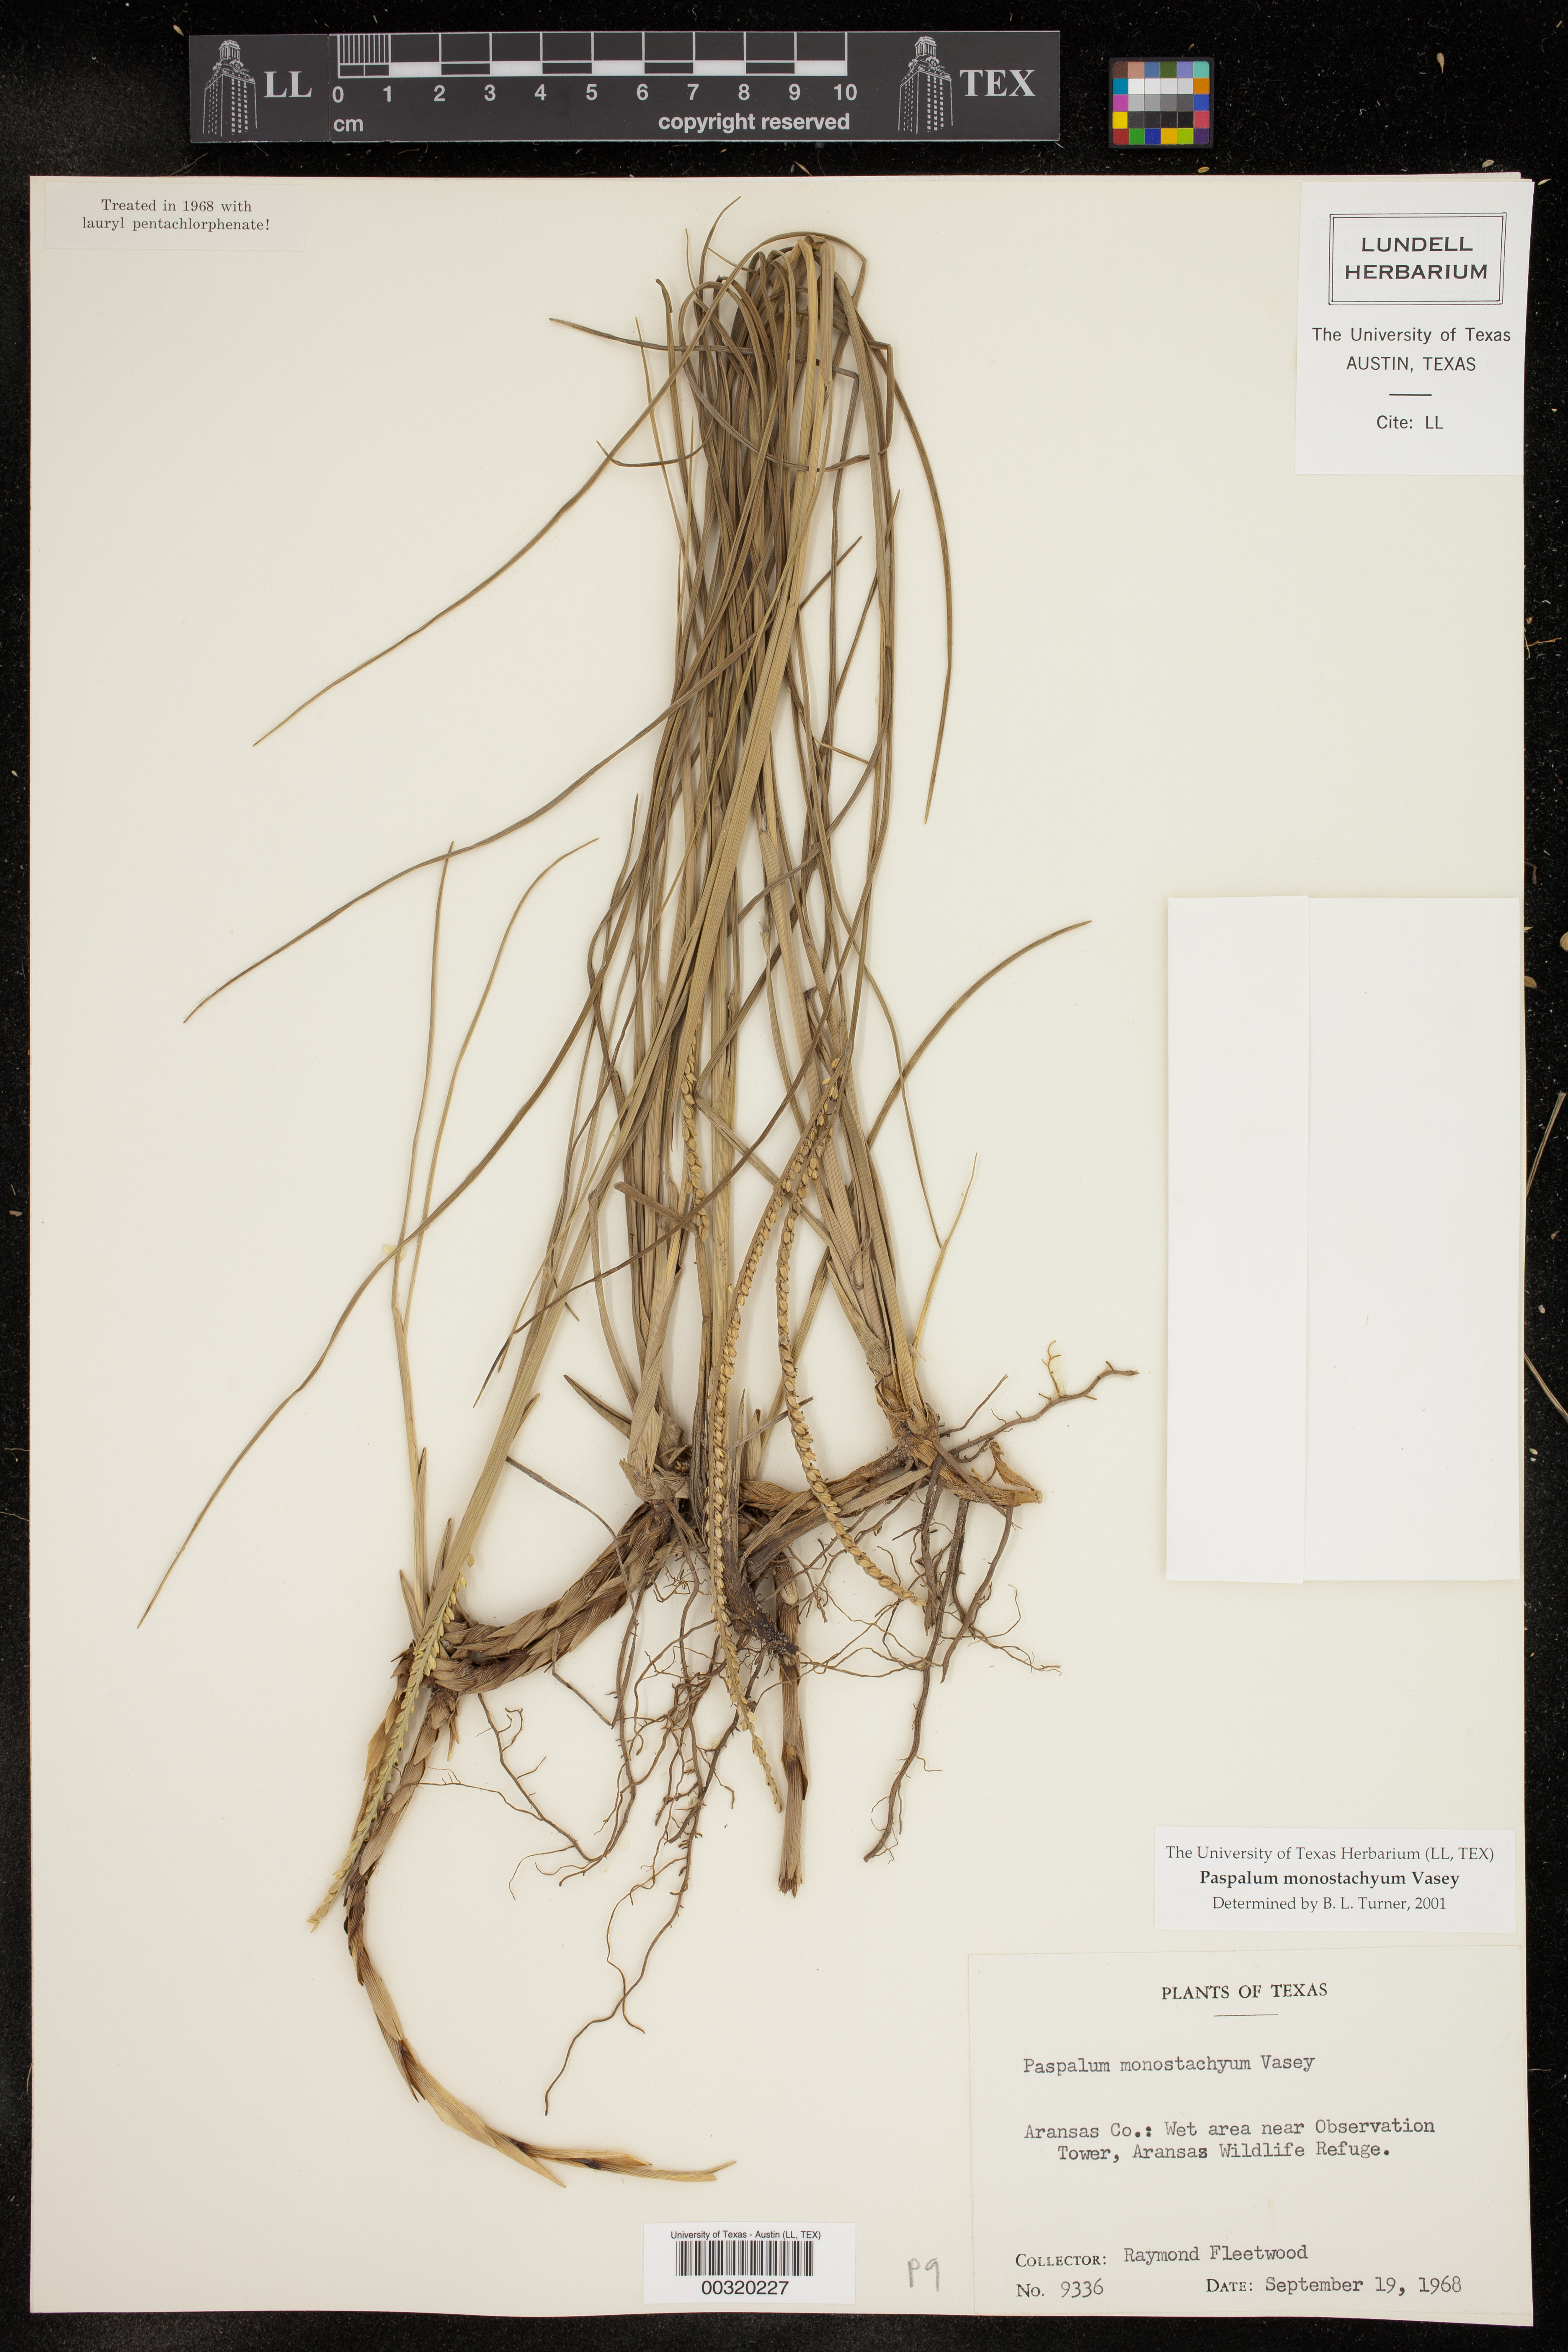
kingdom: Plantae
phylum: Tracheophyta
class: Liliopsida
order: Poales
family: Poaceae
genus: Paspalum
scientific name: Paspalum monostachyum
